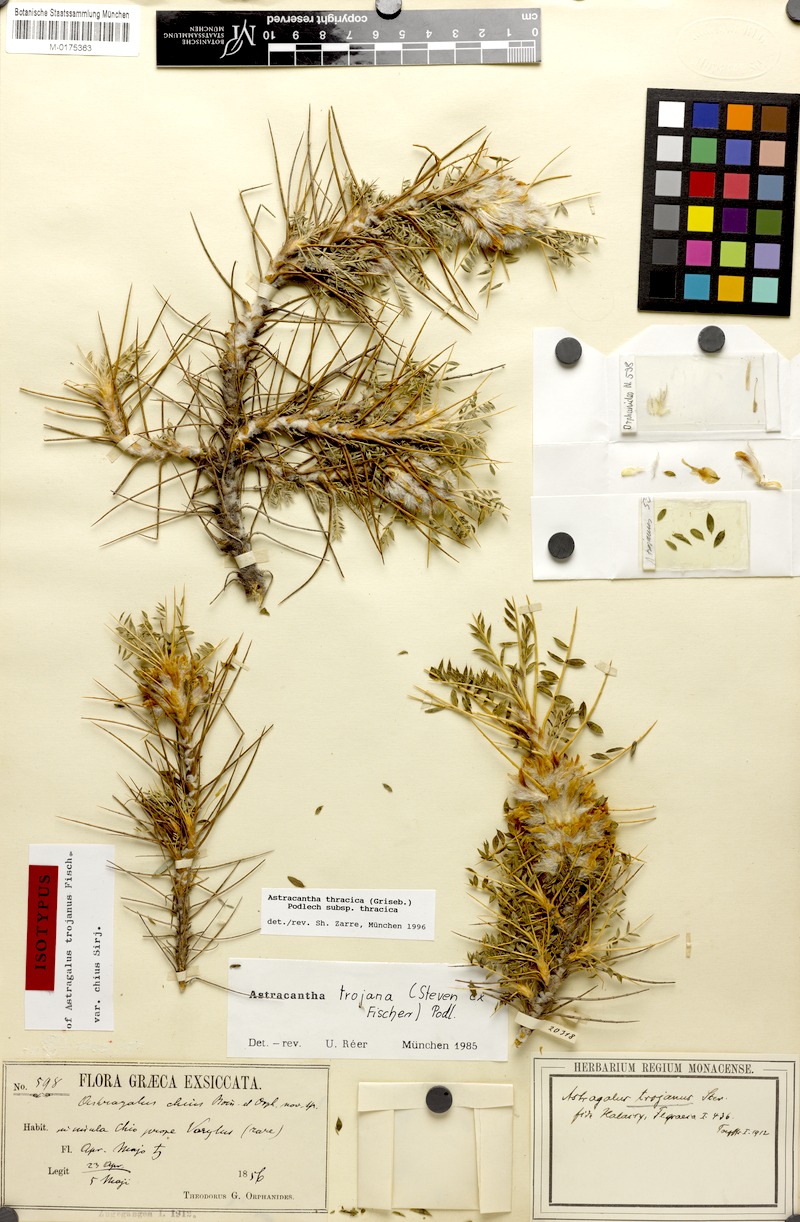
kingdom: Plantae
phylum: Tracheophyta
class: Magnoliopsida
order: Fabales
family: Fabaceae
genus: Astragalus
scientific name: Astragalus thracicus
